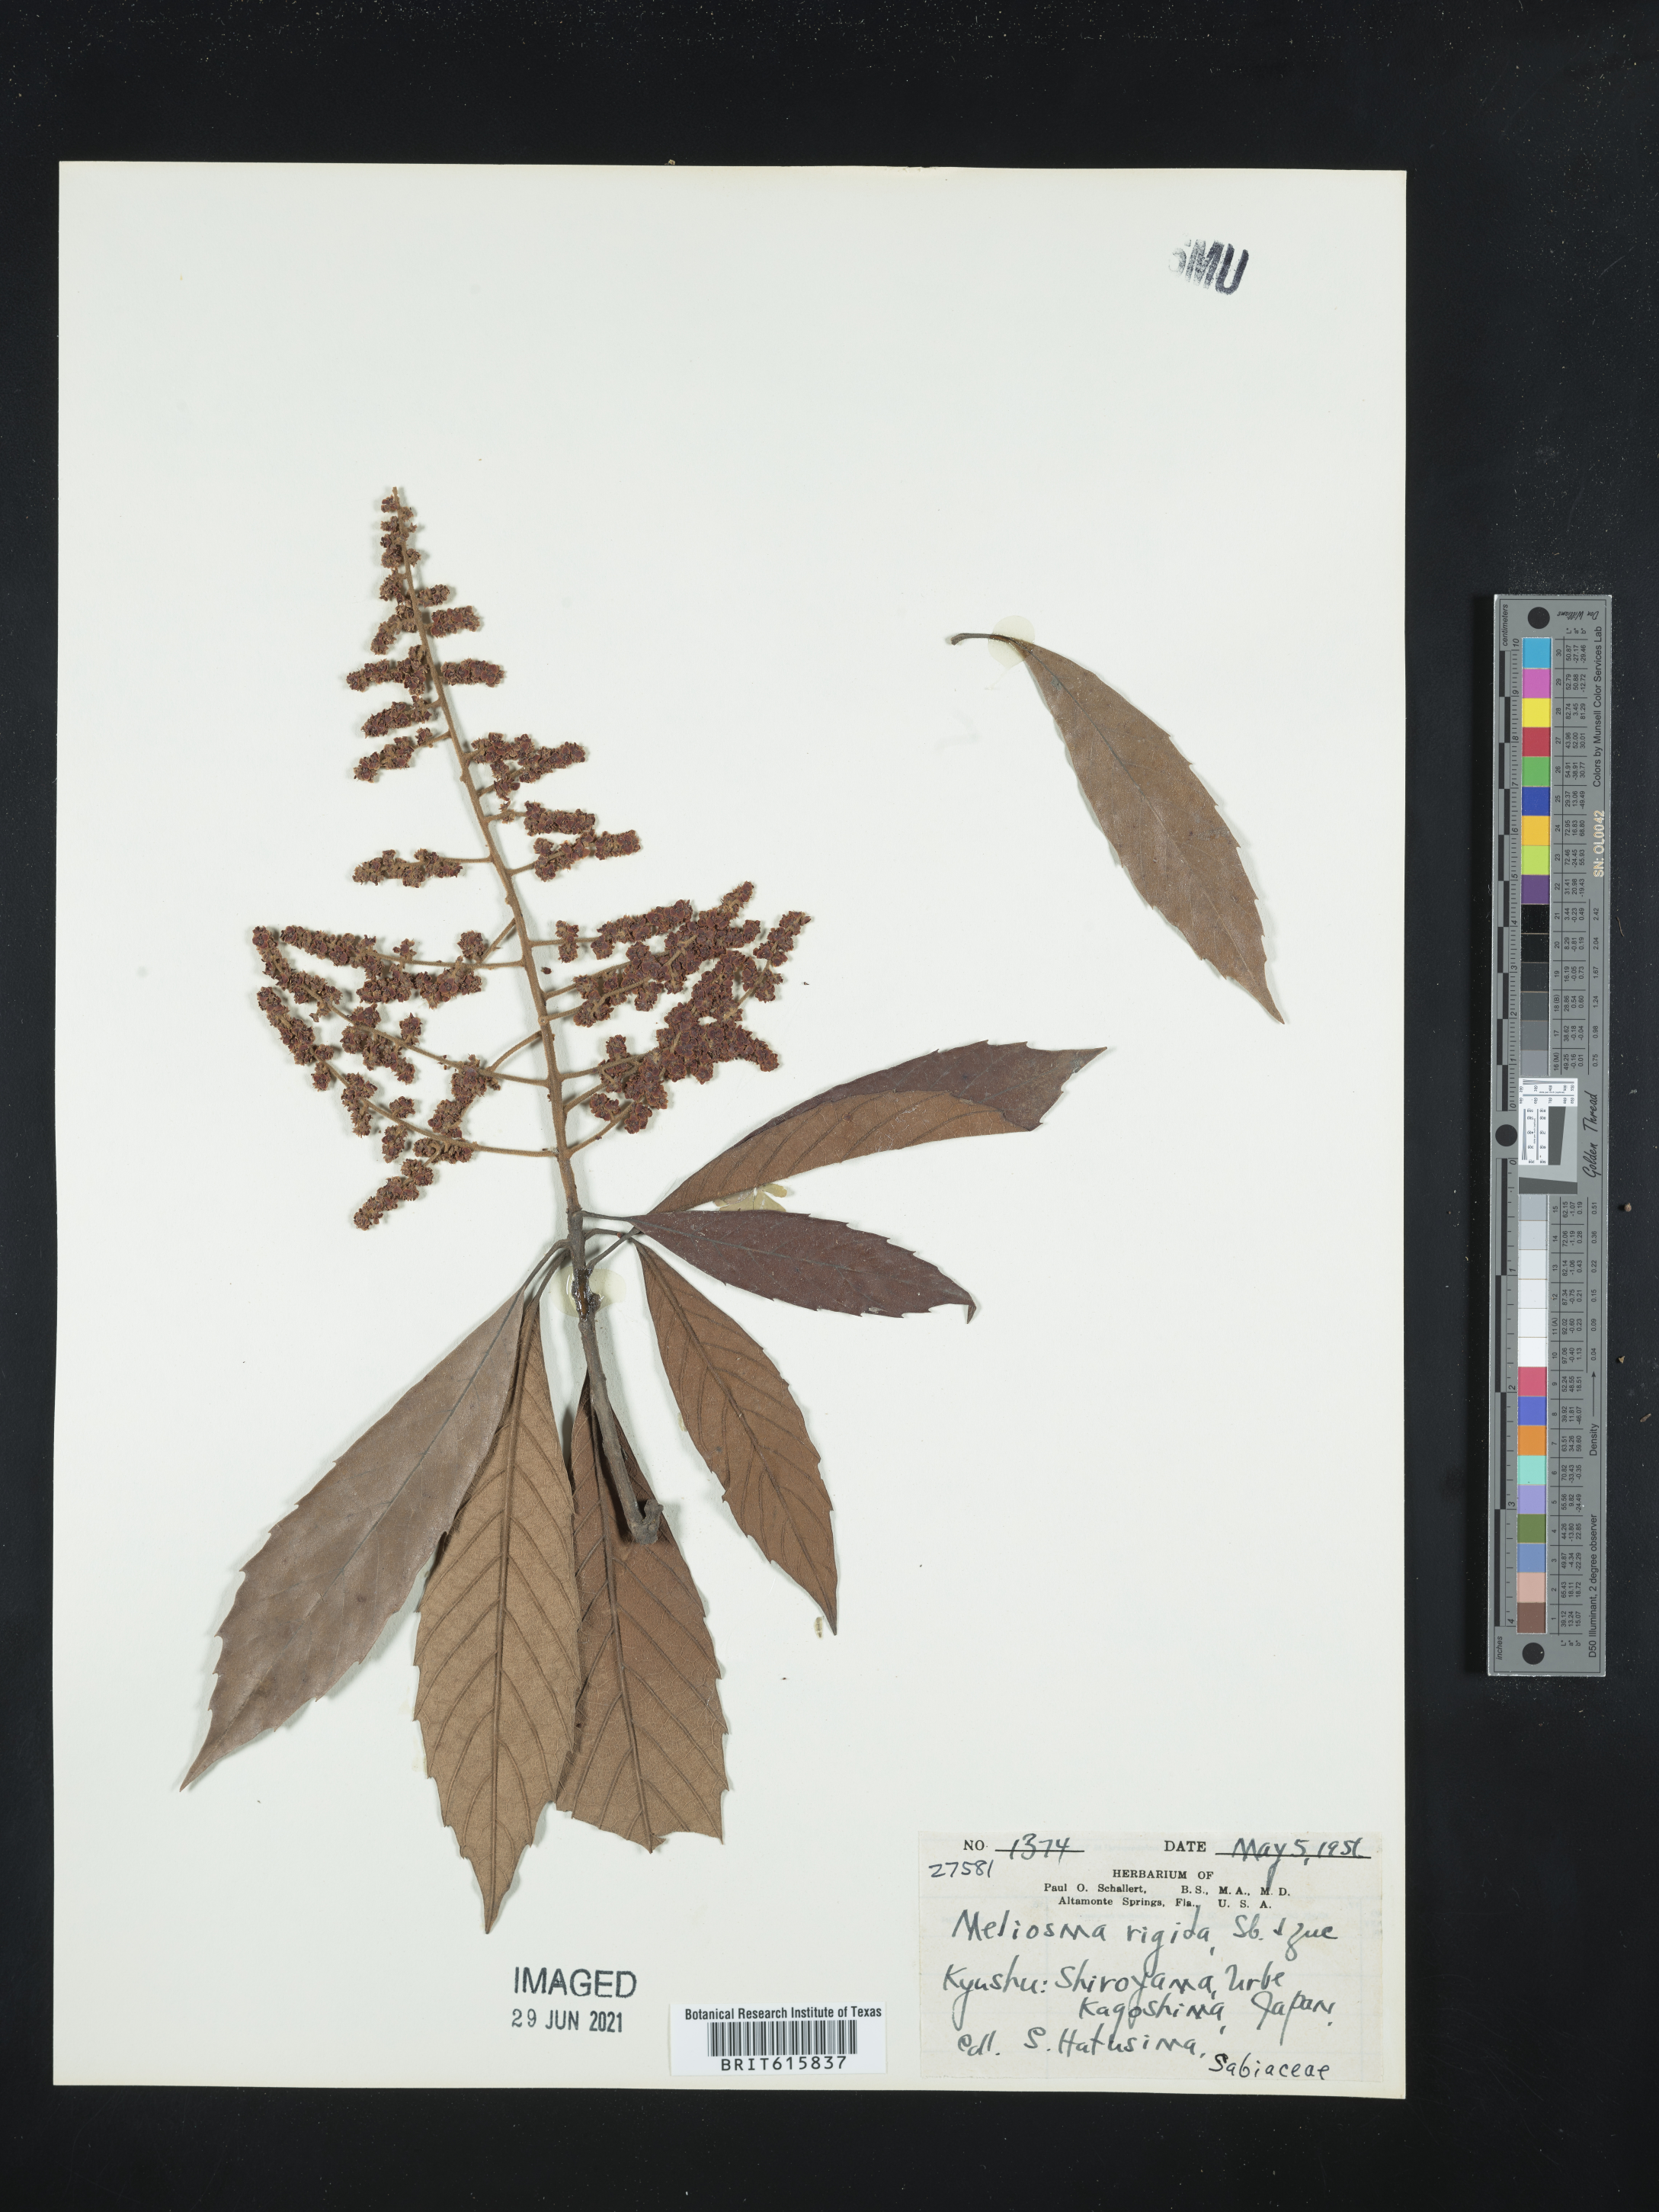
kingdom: Plantae
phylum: Tracheophyta
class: Magnoliopsida
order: Proteales
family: Sabiaceae
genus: Meliosma
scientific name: Meliosma rigida
